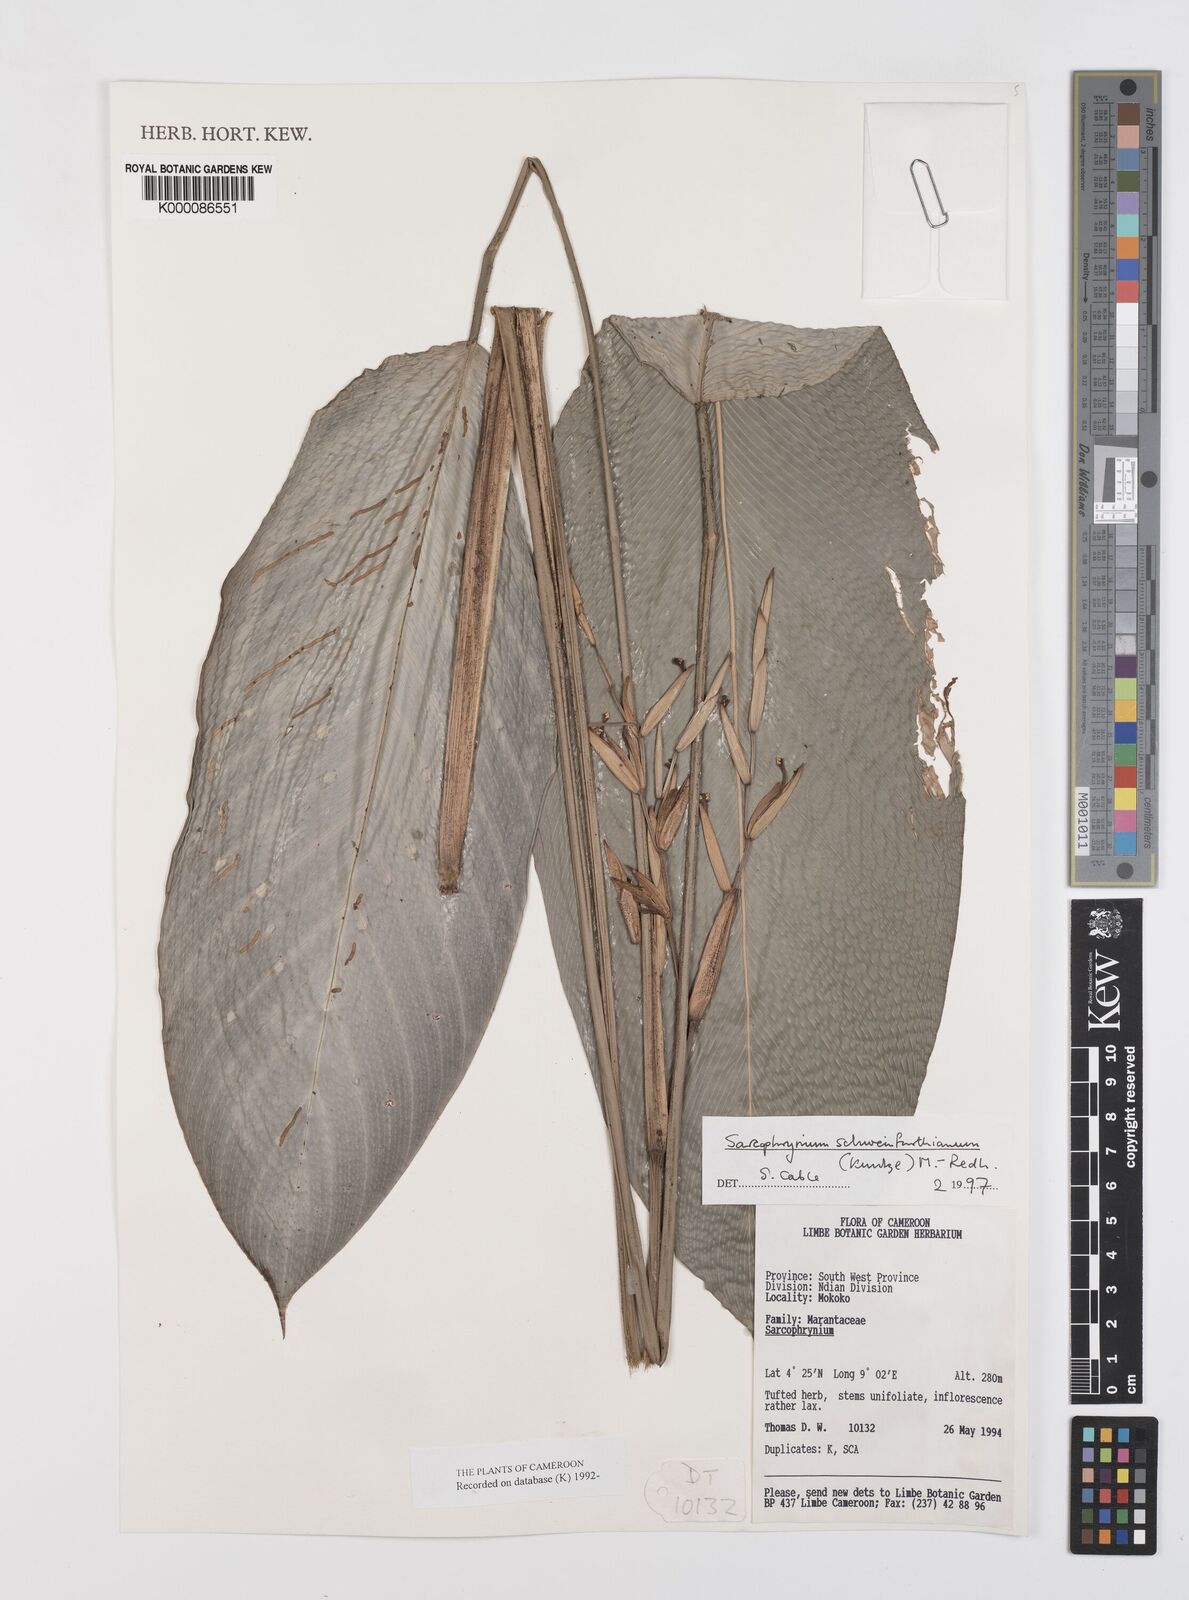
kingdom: Plantae
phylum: Tracheophyta
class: Liliopsida
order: Zingiberales
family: Marantaceae
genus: Sarcophrynium
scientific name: Sarcophrynium schweinfurthianum
